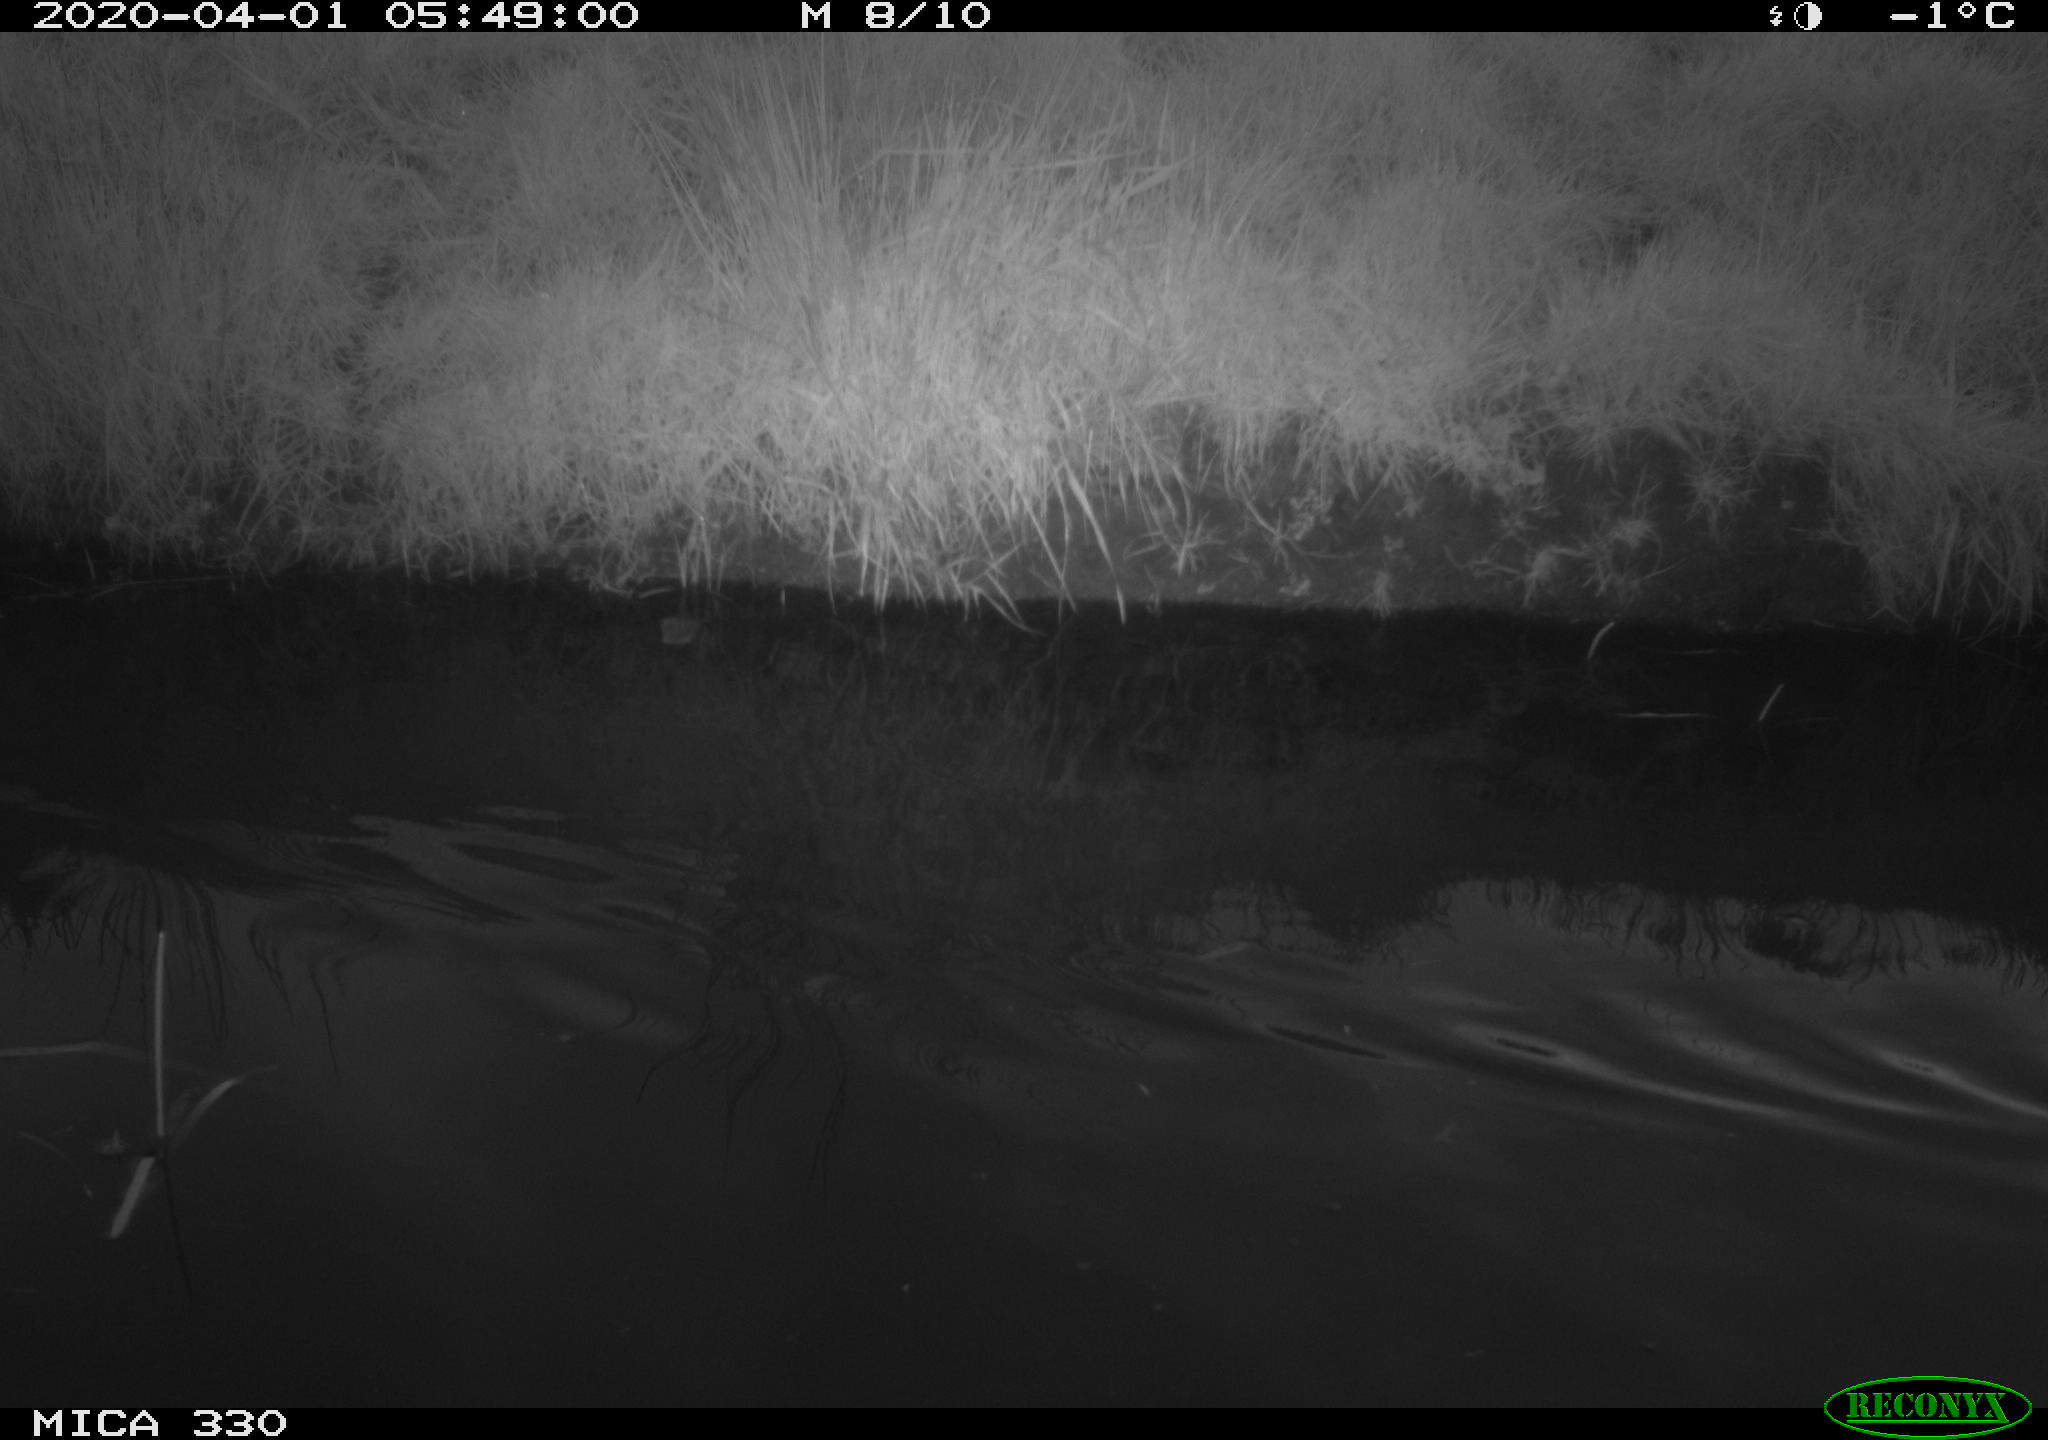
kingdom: Animalia
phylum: Chordata
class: Aves
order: Anseriformes
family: Anatidae
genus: Anas
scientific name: Anas platyrhynchos
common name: Mallard
